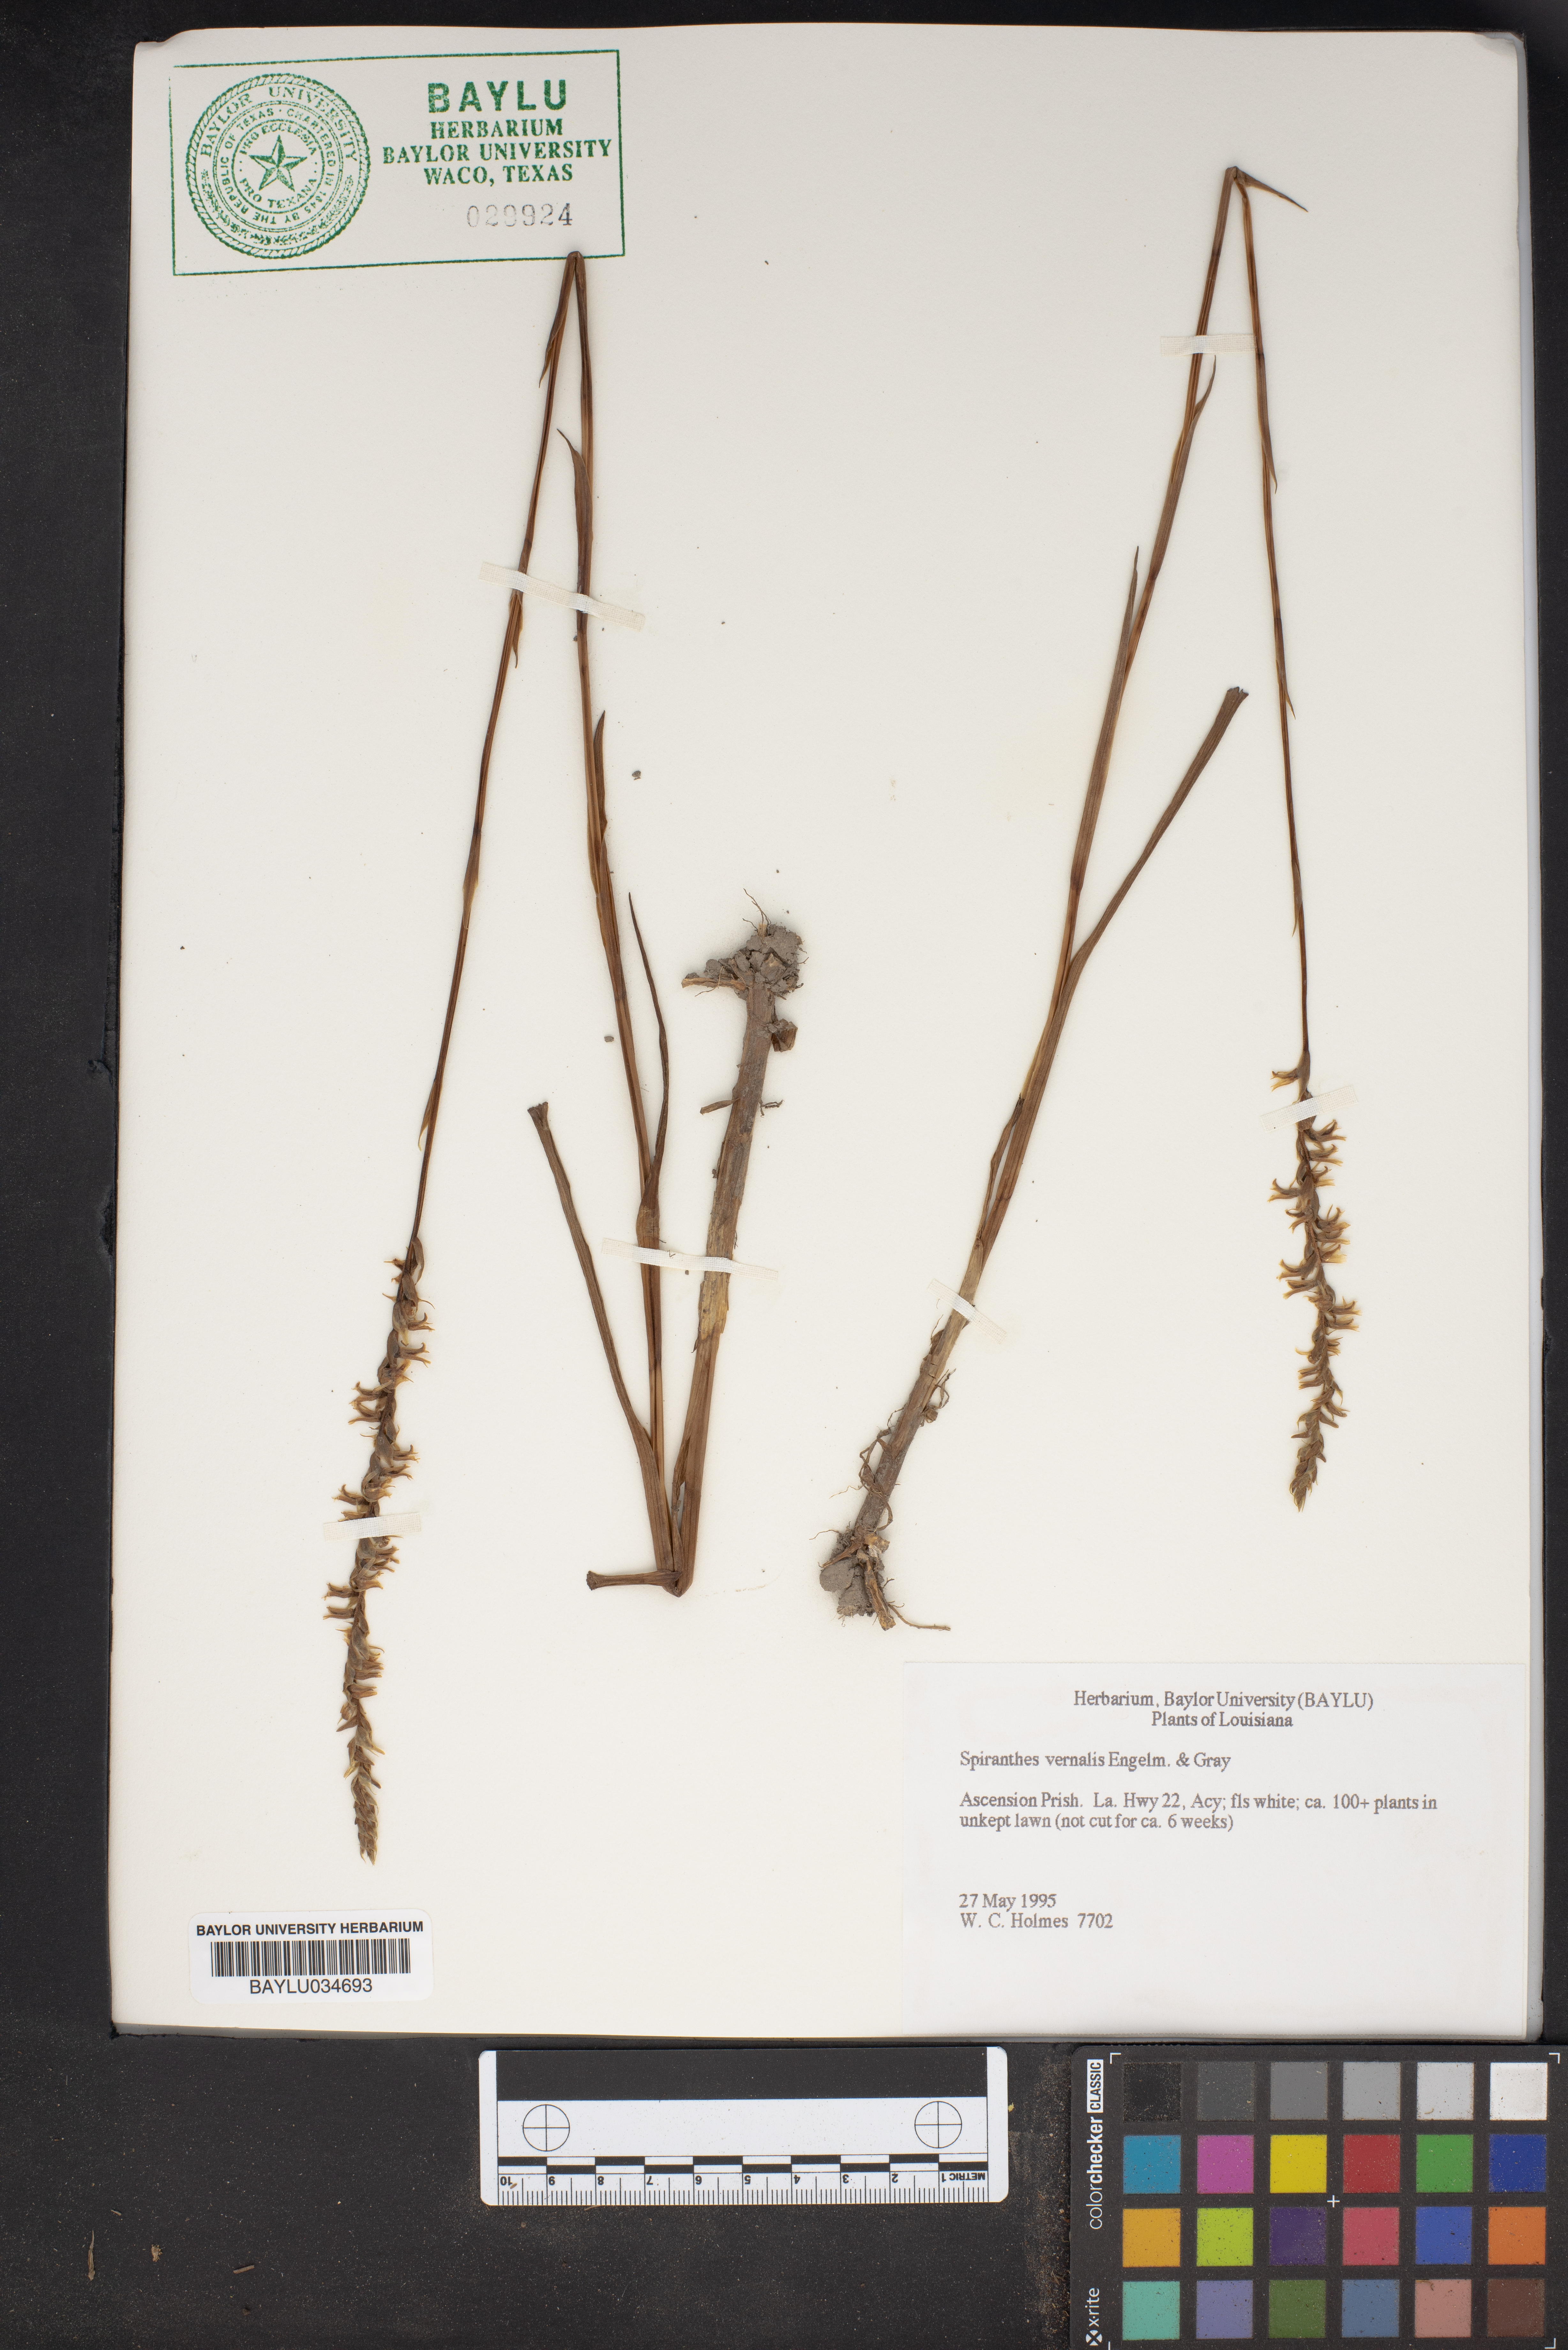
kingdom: Plantae
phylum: Tracheophyta
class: Liliopsida
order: Asparagales
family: Orchidaceae
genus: Spiranthes
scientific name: Spiranthes vernalis
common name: Spring ladies'-tresses
